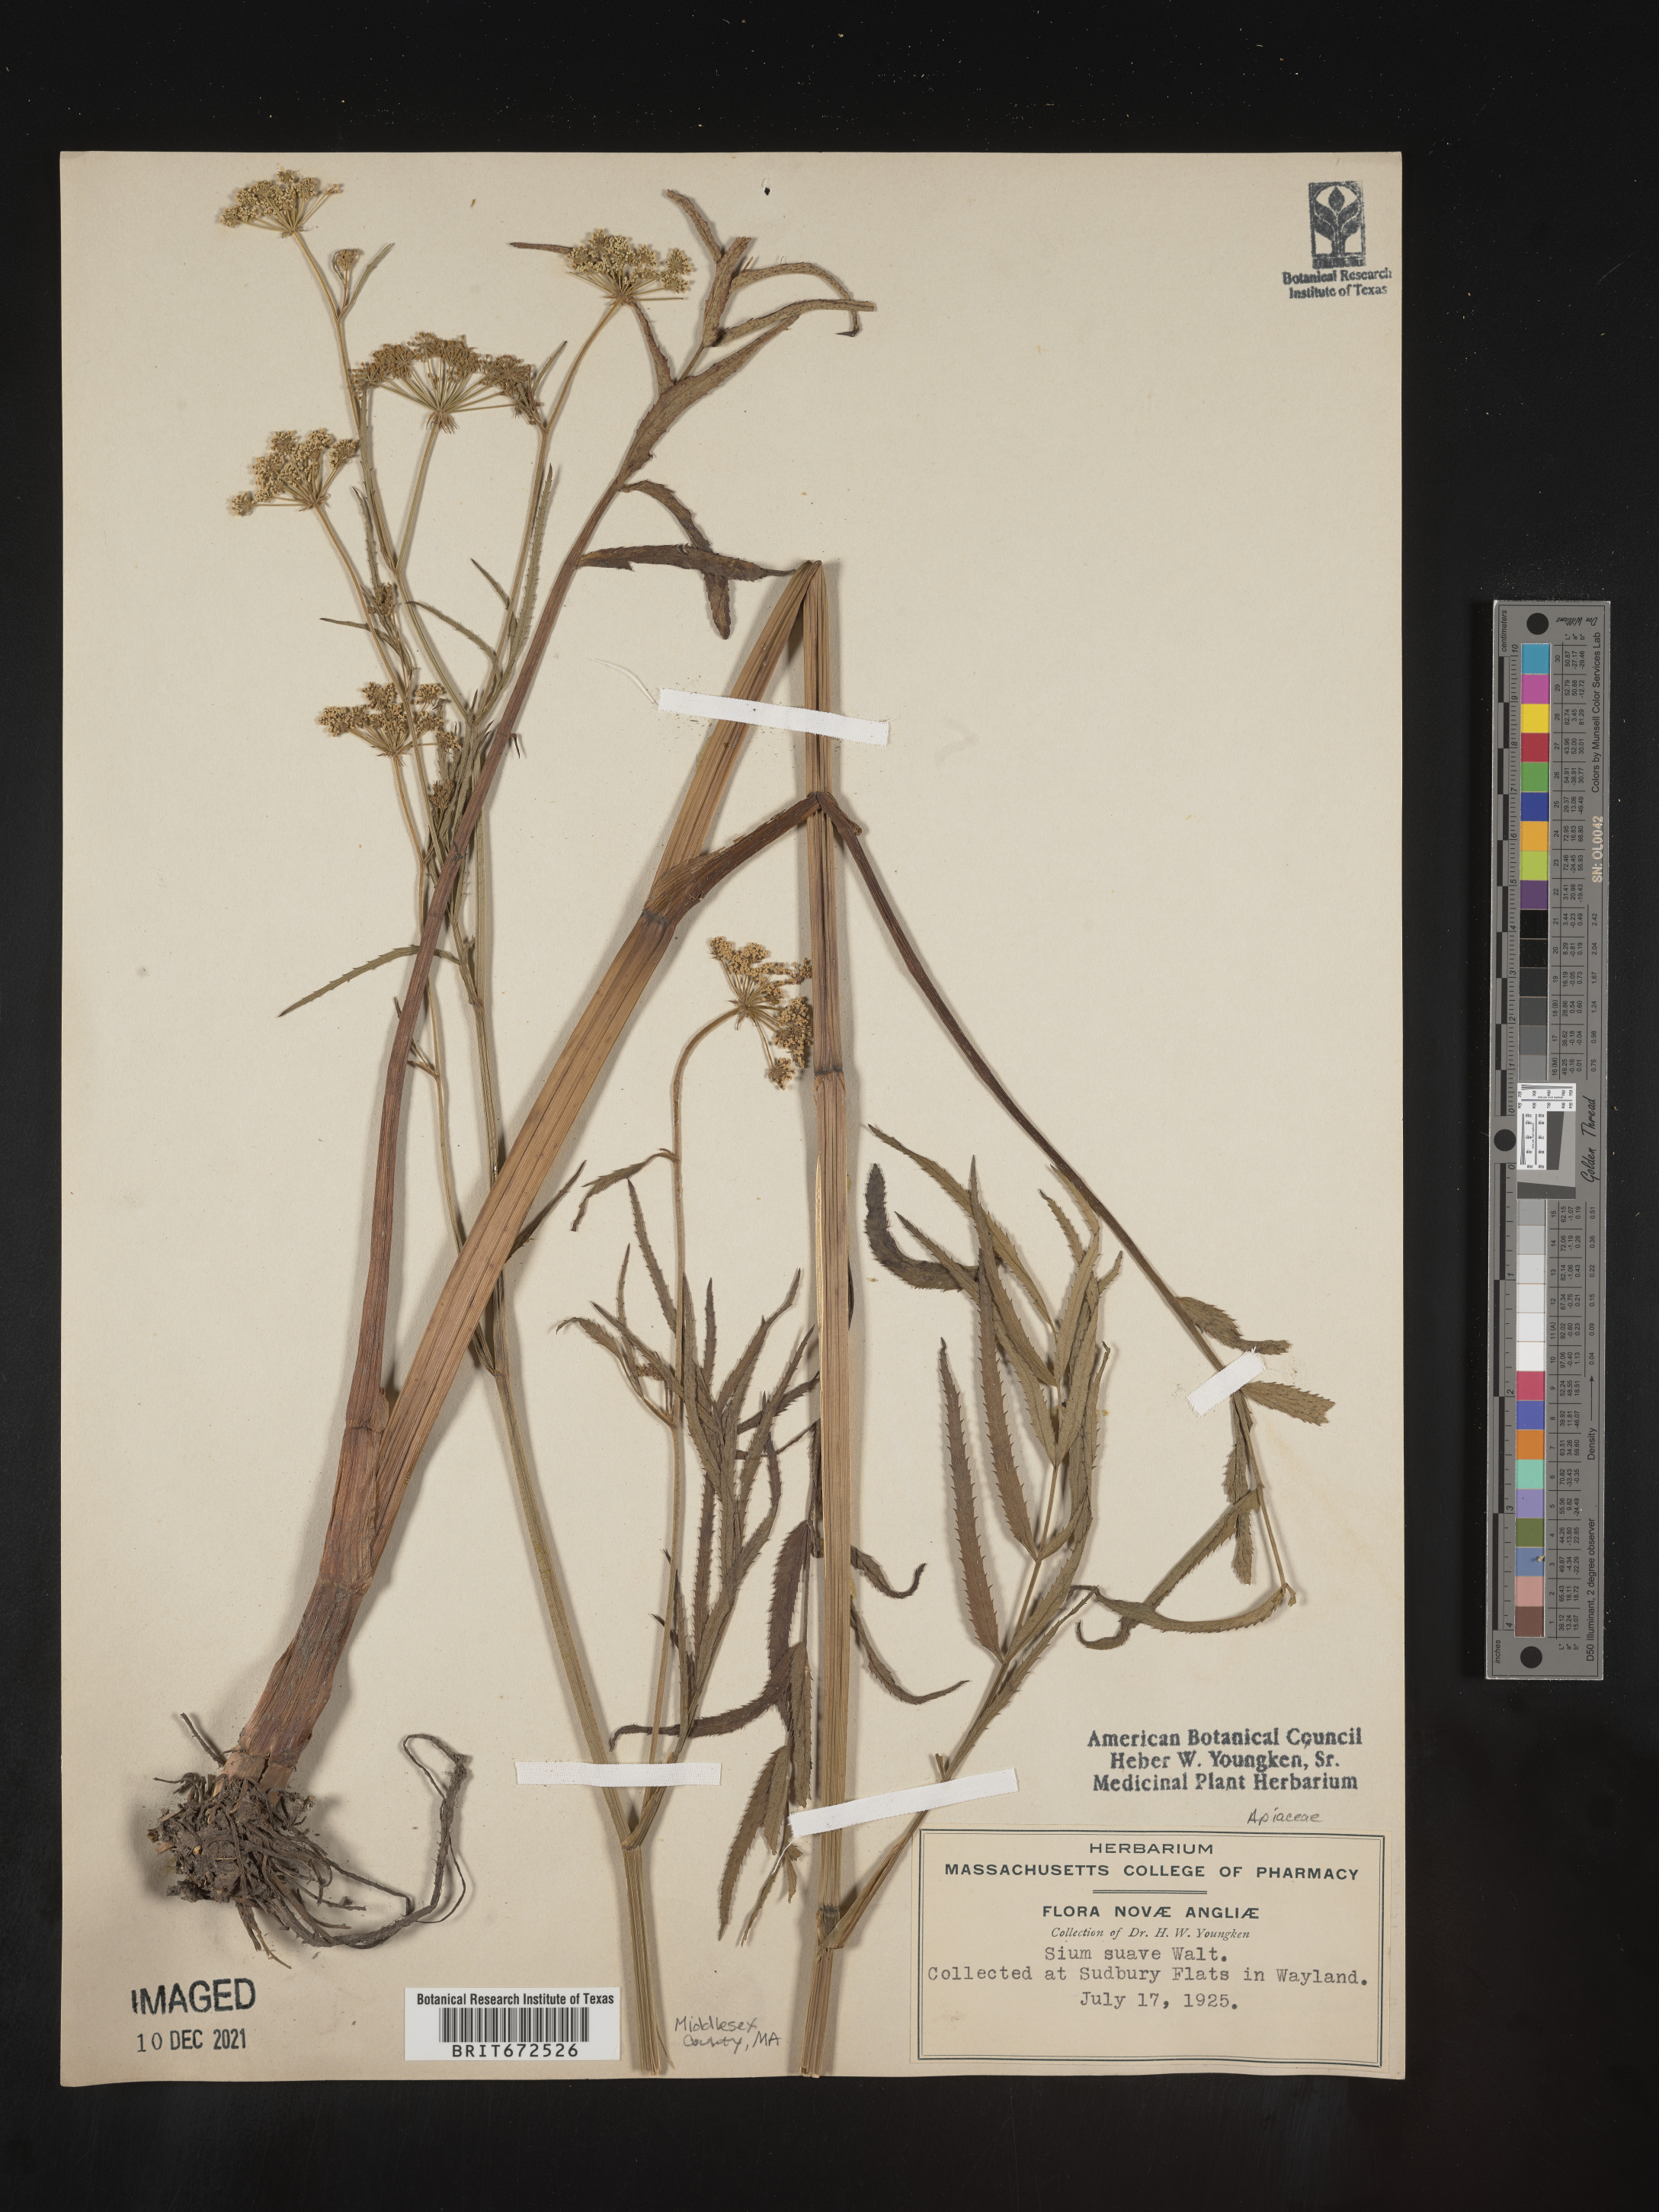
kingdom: Plantae
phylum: Tracheophyta
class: Magnoliopsida
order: Apiales
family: Apiaceae
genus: Sium
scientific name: Sium suave
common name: Hemlock water-parsnip
